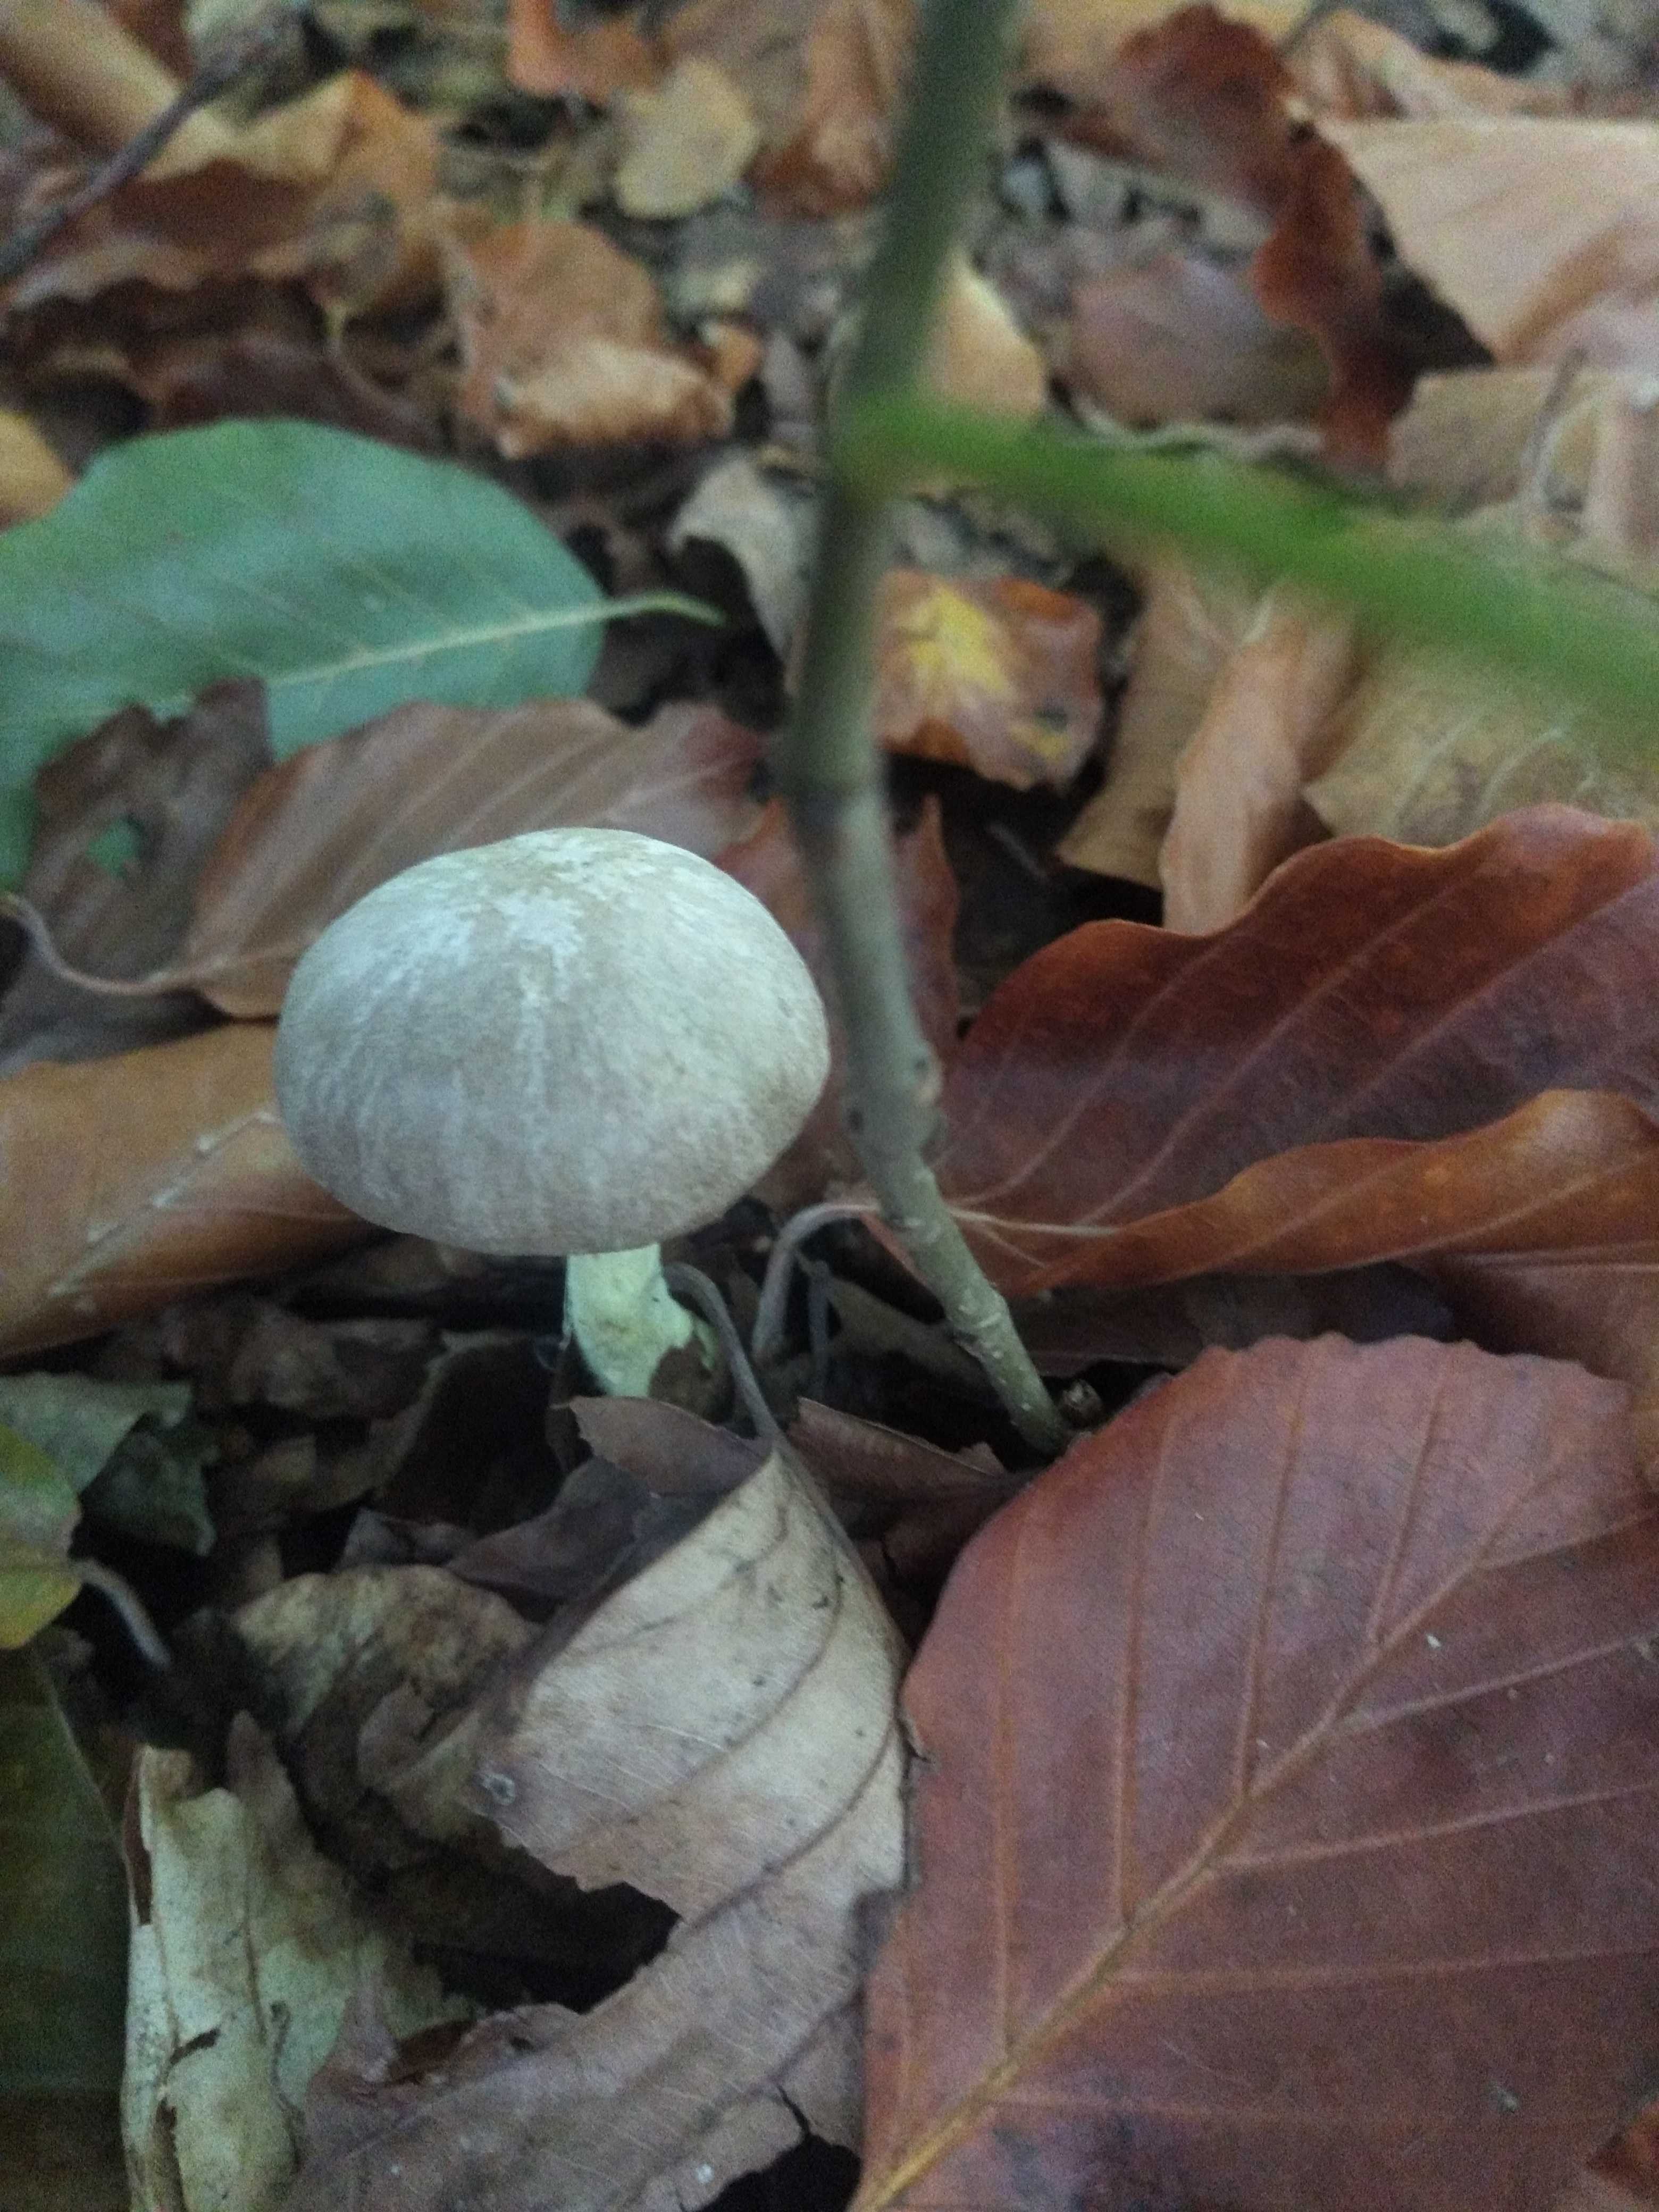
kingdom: Fungi
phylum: Basidiomycota
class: Agaricomycetes
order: Agaricales
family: Omphalotaceae
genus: Collybiopsis
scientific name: Collybiopsis peronata
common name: bestøvlet fladhat
